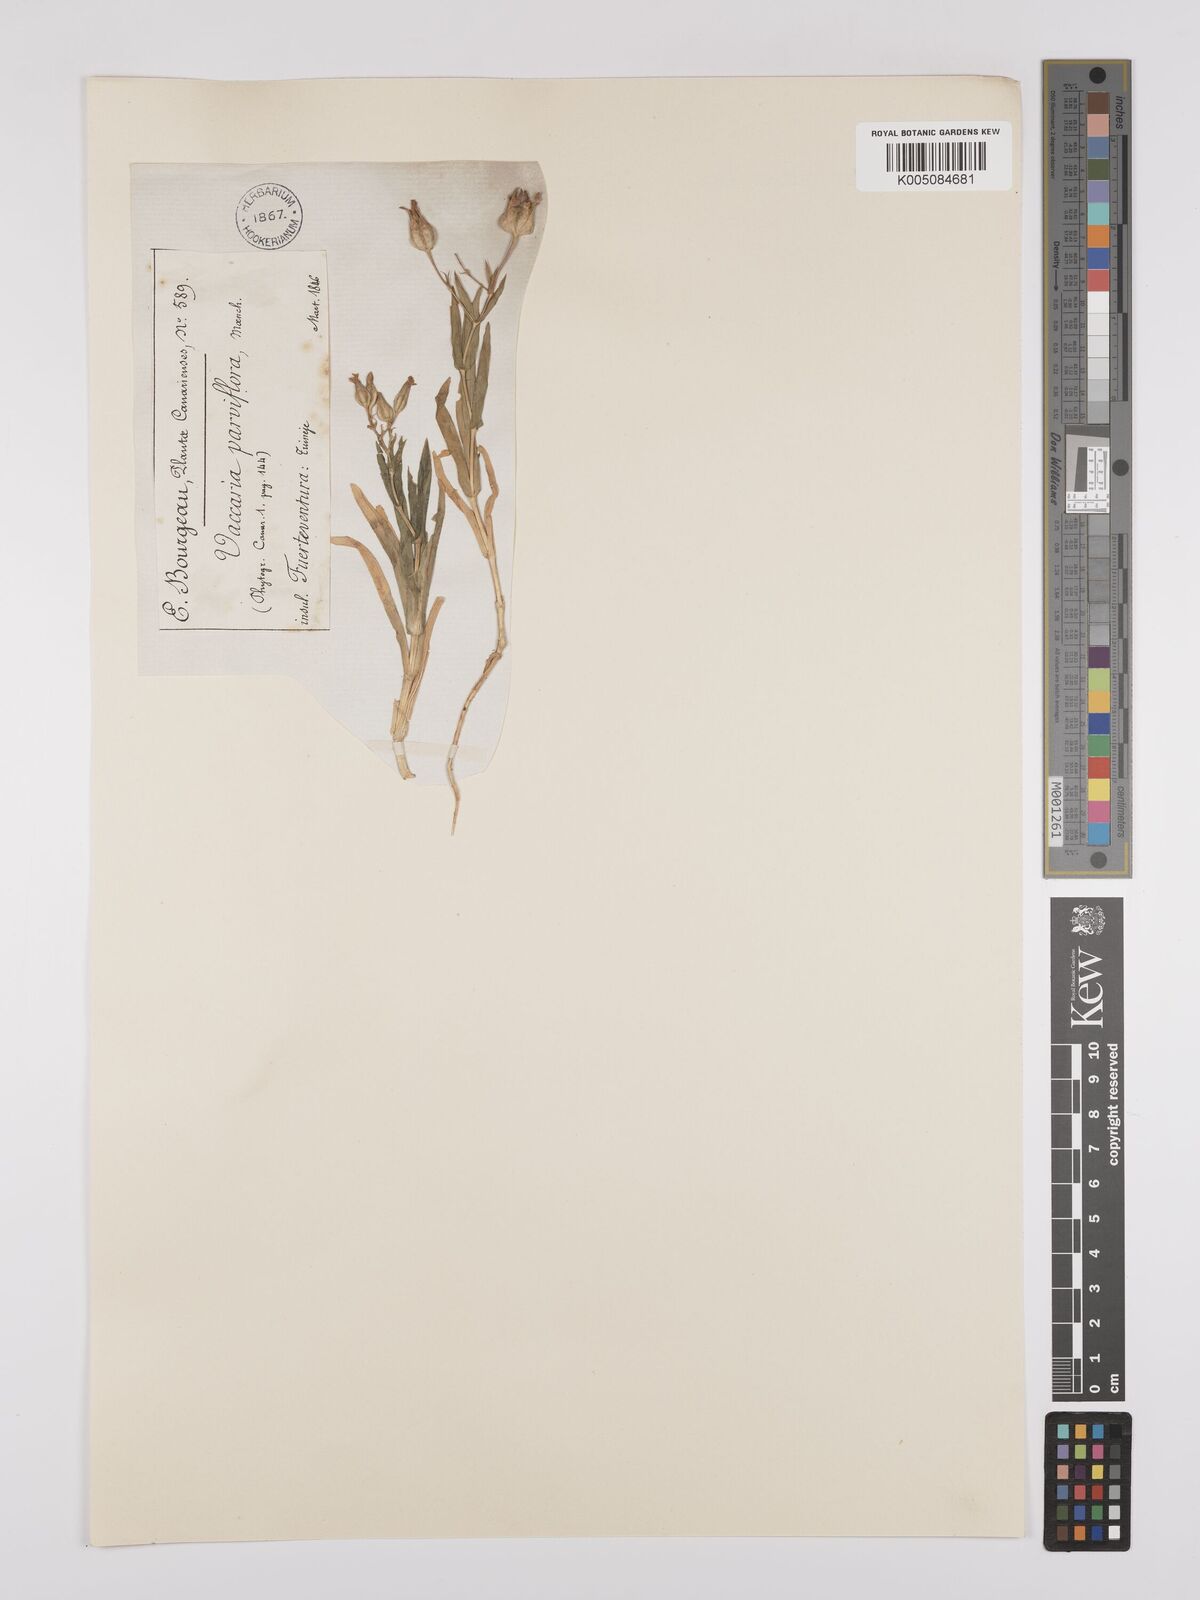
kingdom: Plantae
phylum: Tracheophyta
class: Magnoliopsida
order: Caryophyllales
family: Caryophyllaceae
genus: Gypsophila
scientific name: Gypsophila vaccaria
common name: Cow soapwort
